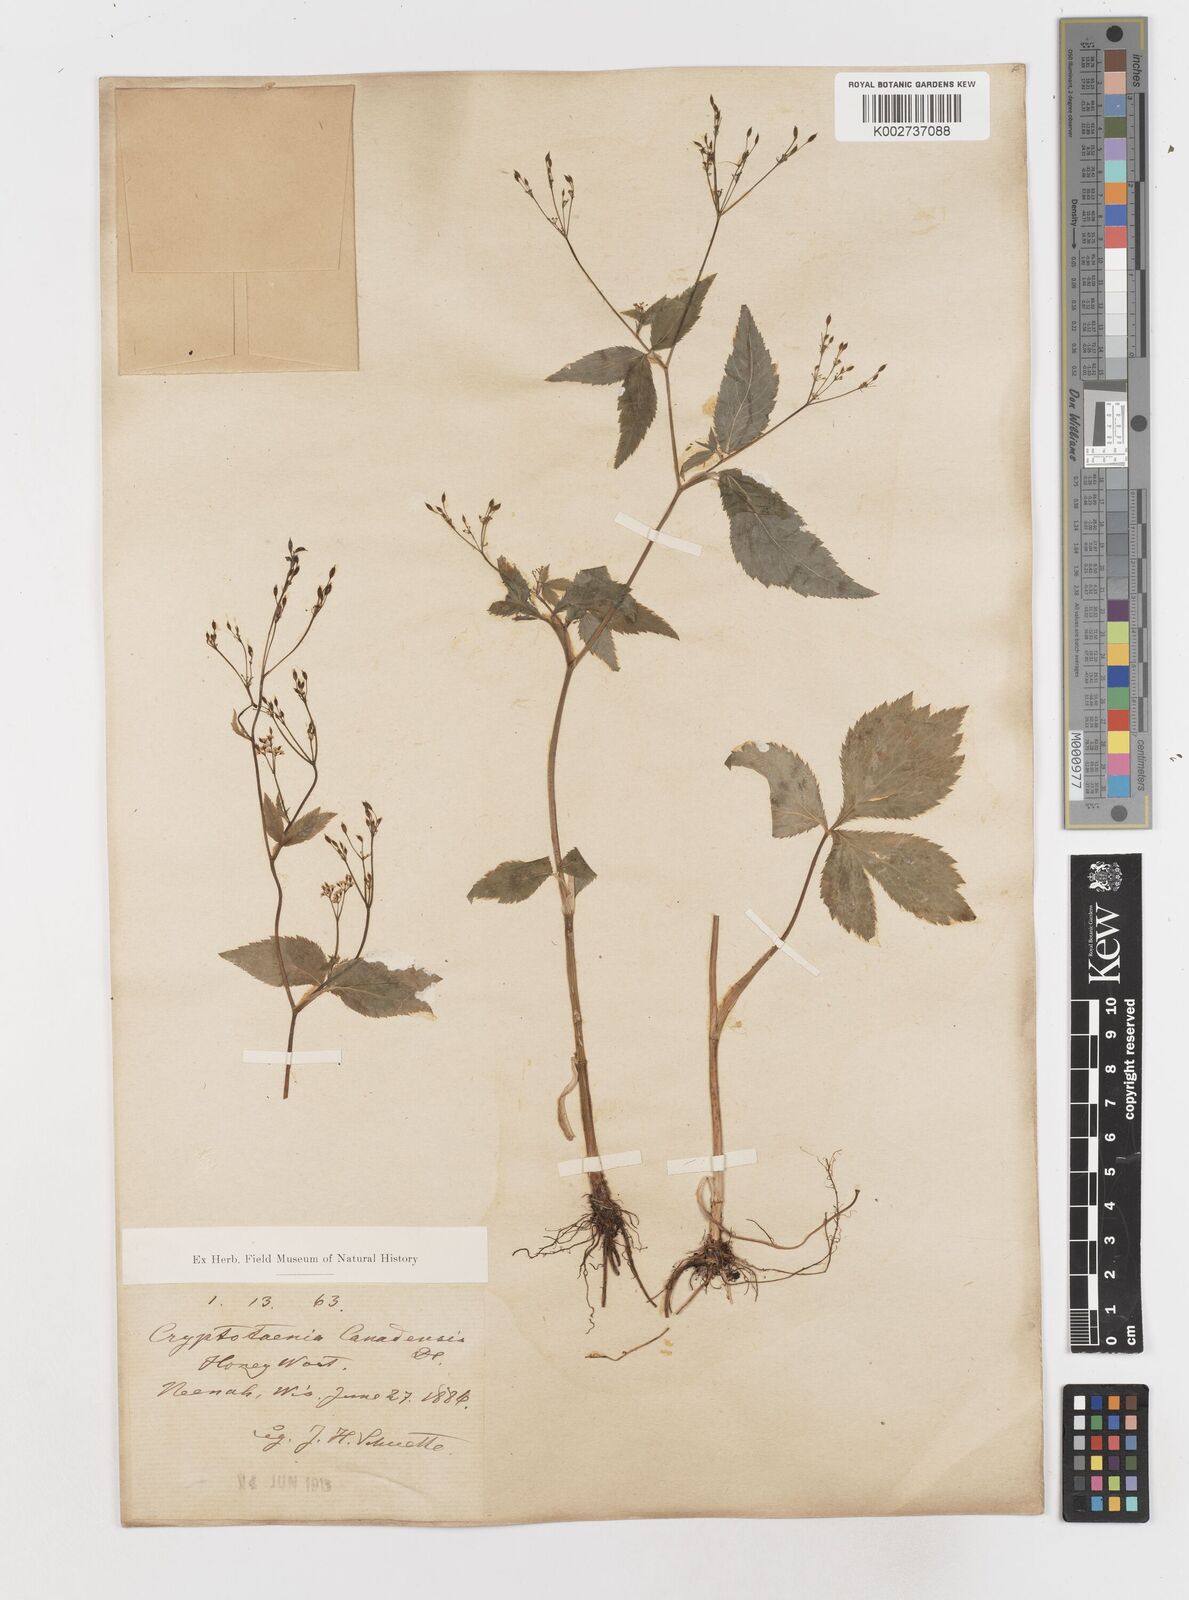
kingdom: Plantae
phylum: Tracheophyta
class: Magnoliopsida
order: Apiales
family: Apiaceae
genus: Cryptotaenia
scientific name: Cryptotaenia canadensis
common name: Honewort
